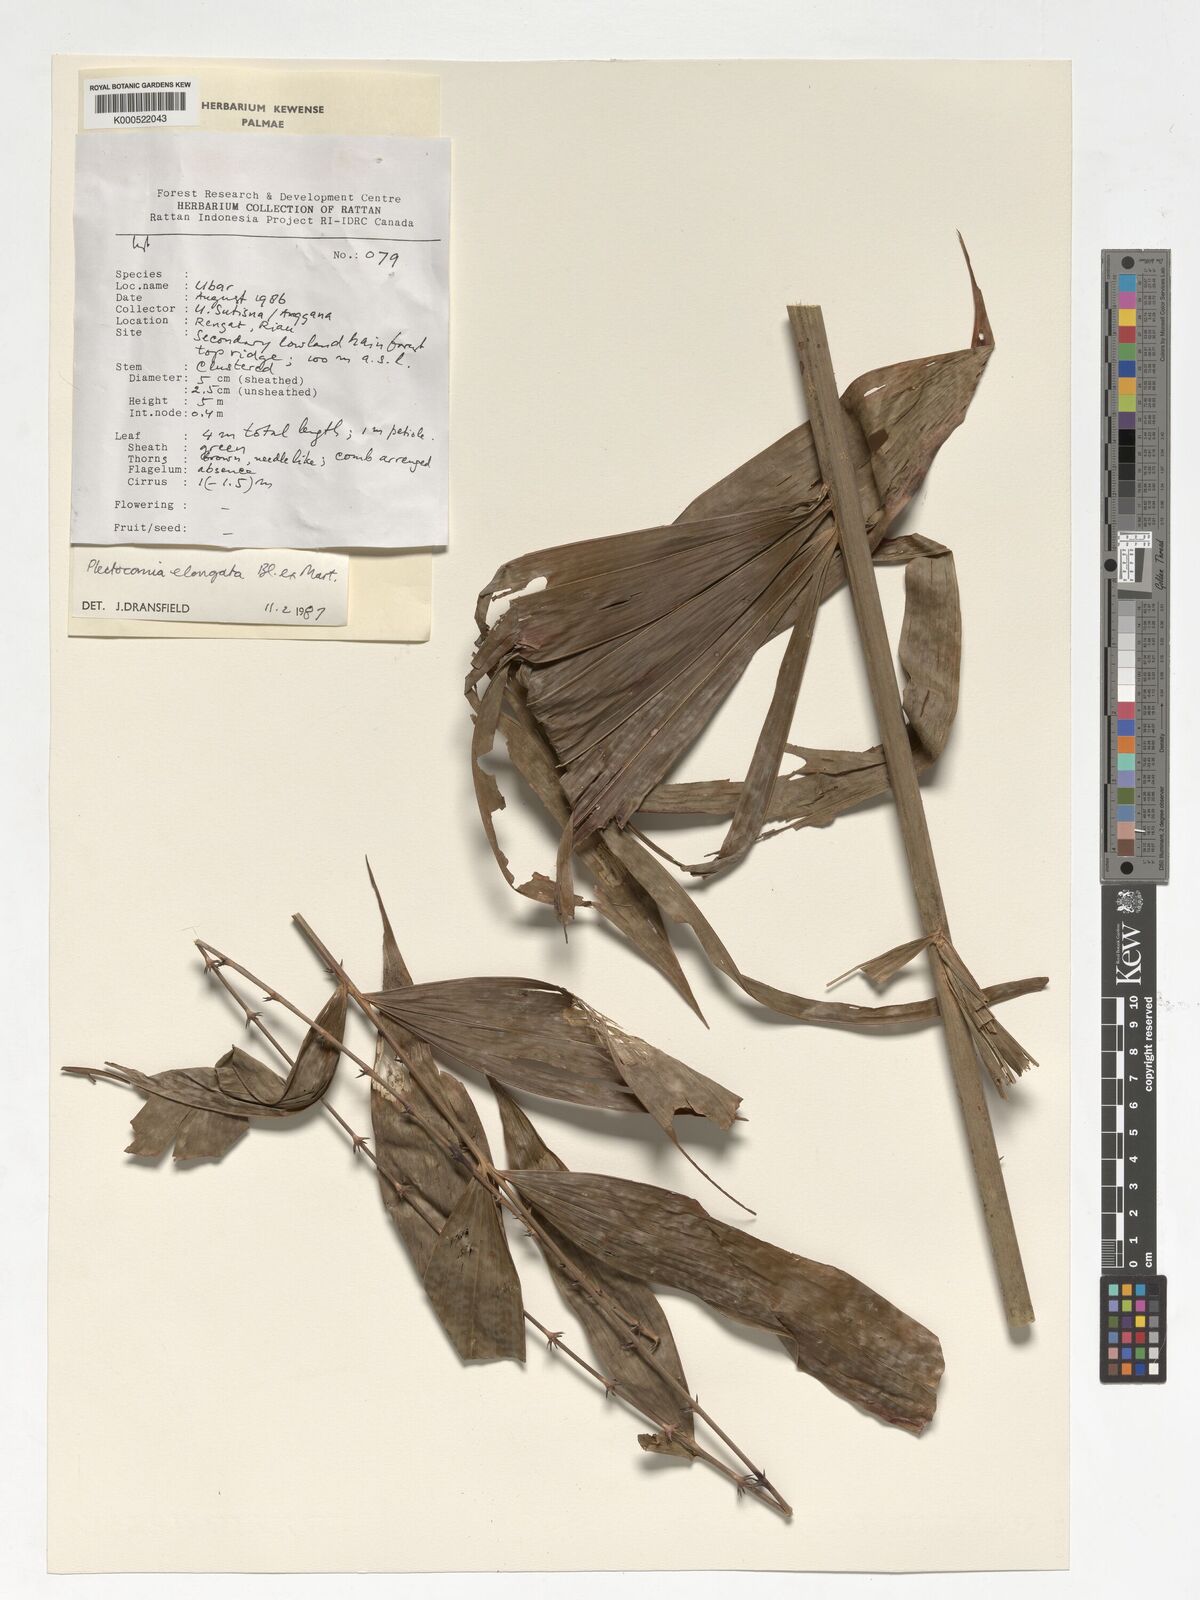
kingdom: Plantae
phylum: Tracheophyta
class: Liliopsida
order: Arecales
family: Arecaceae
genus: Plectocomia
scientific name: Plectocomia elongata
